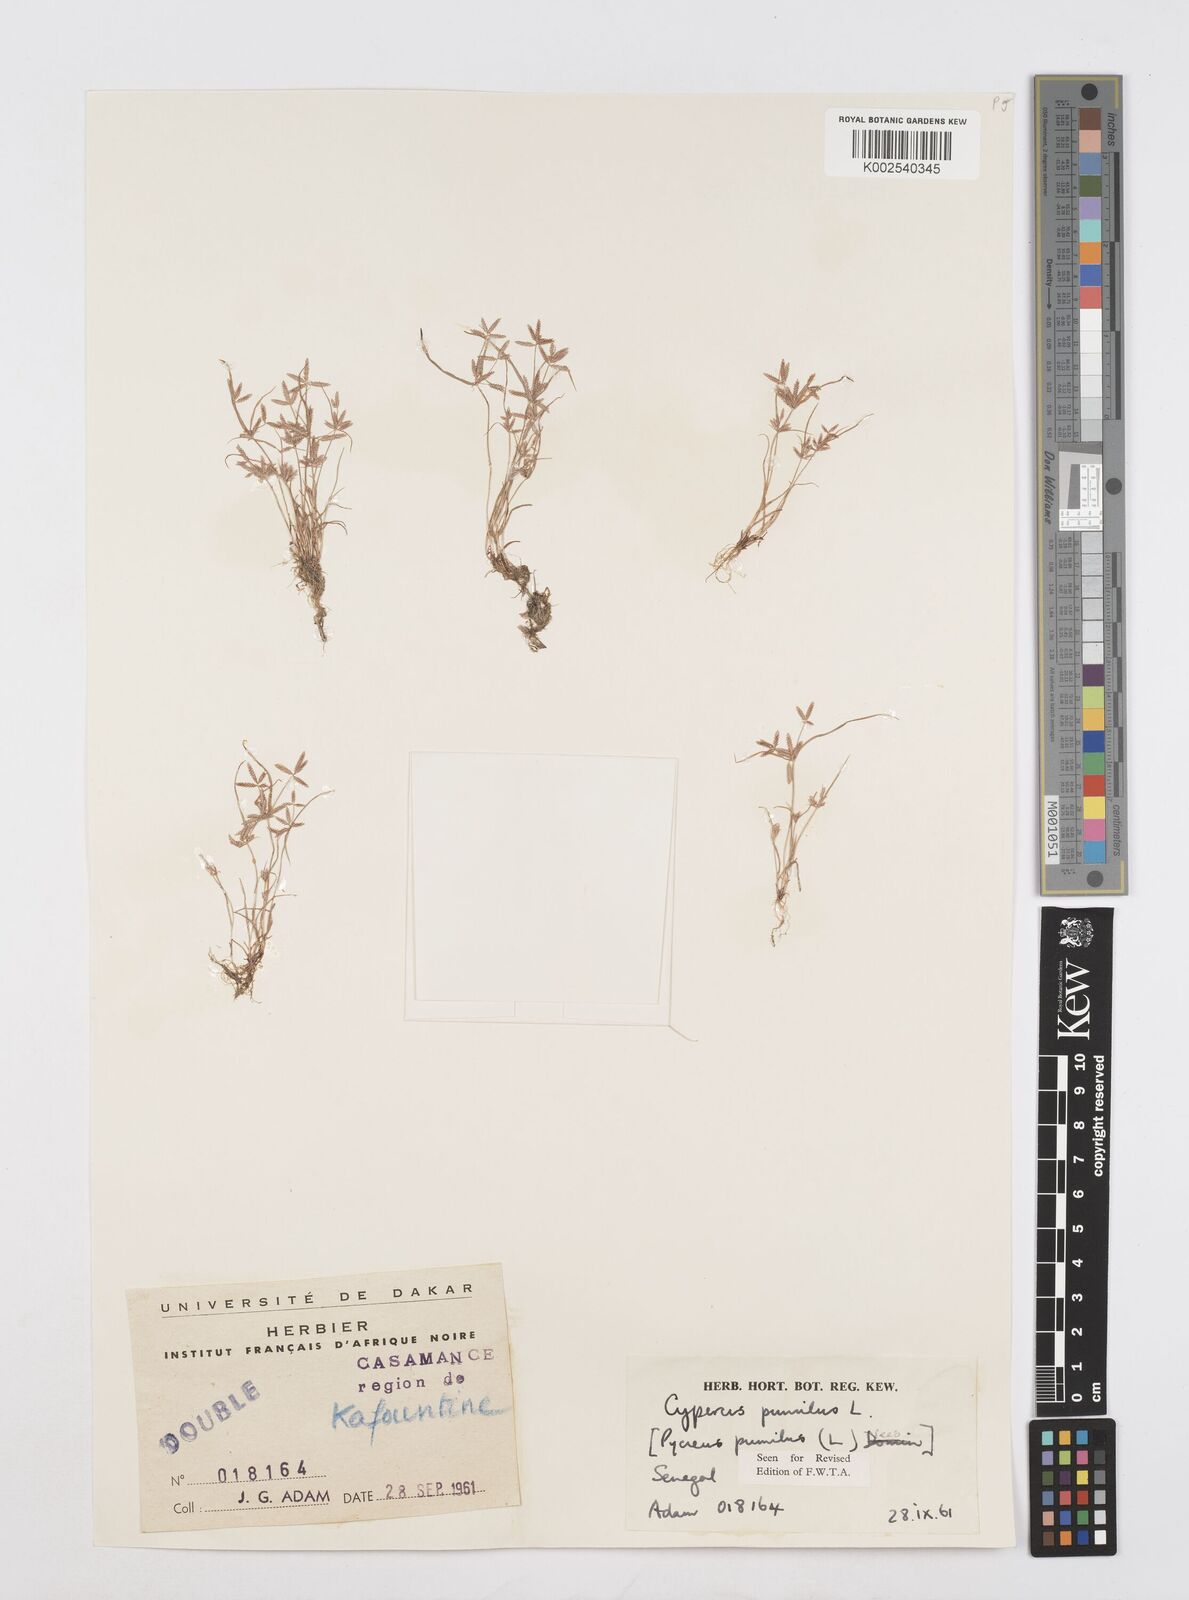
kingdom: Plantae
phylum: Tracheophyta
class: Liliopsida
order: Poales
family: Cyperaceae
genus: Cyperus
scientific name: Cyperus pumilus
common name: Low flatsedge
